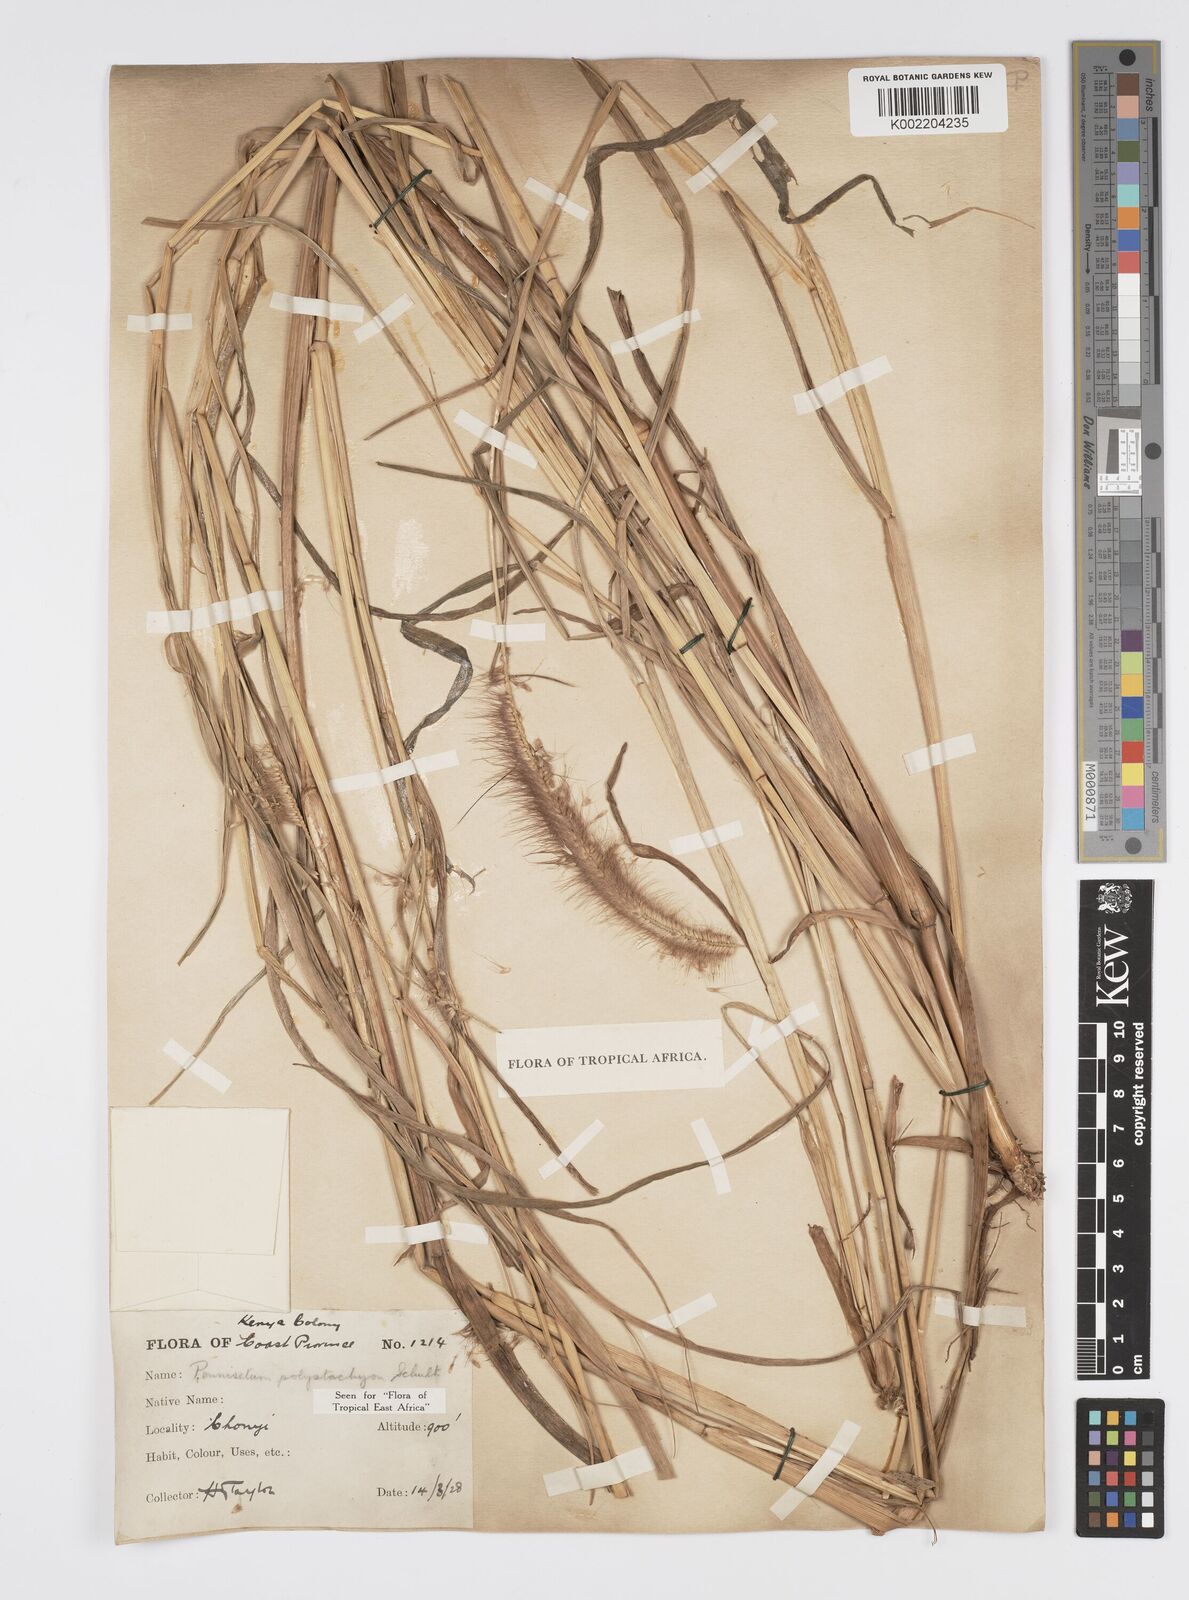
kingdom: Plantae
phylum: Tracheophyta
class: Liliopsida
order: Poales
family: Poaceae
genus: Setaria
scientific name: Setaria parviflora
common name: Knotroot bristle-grass
